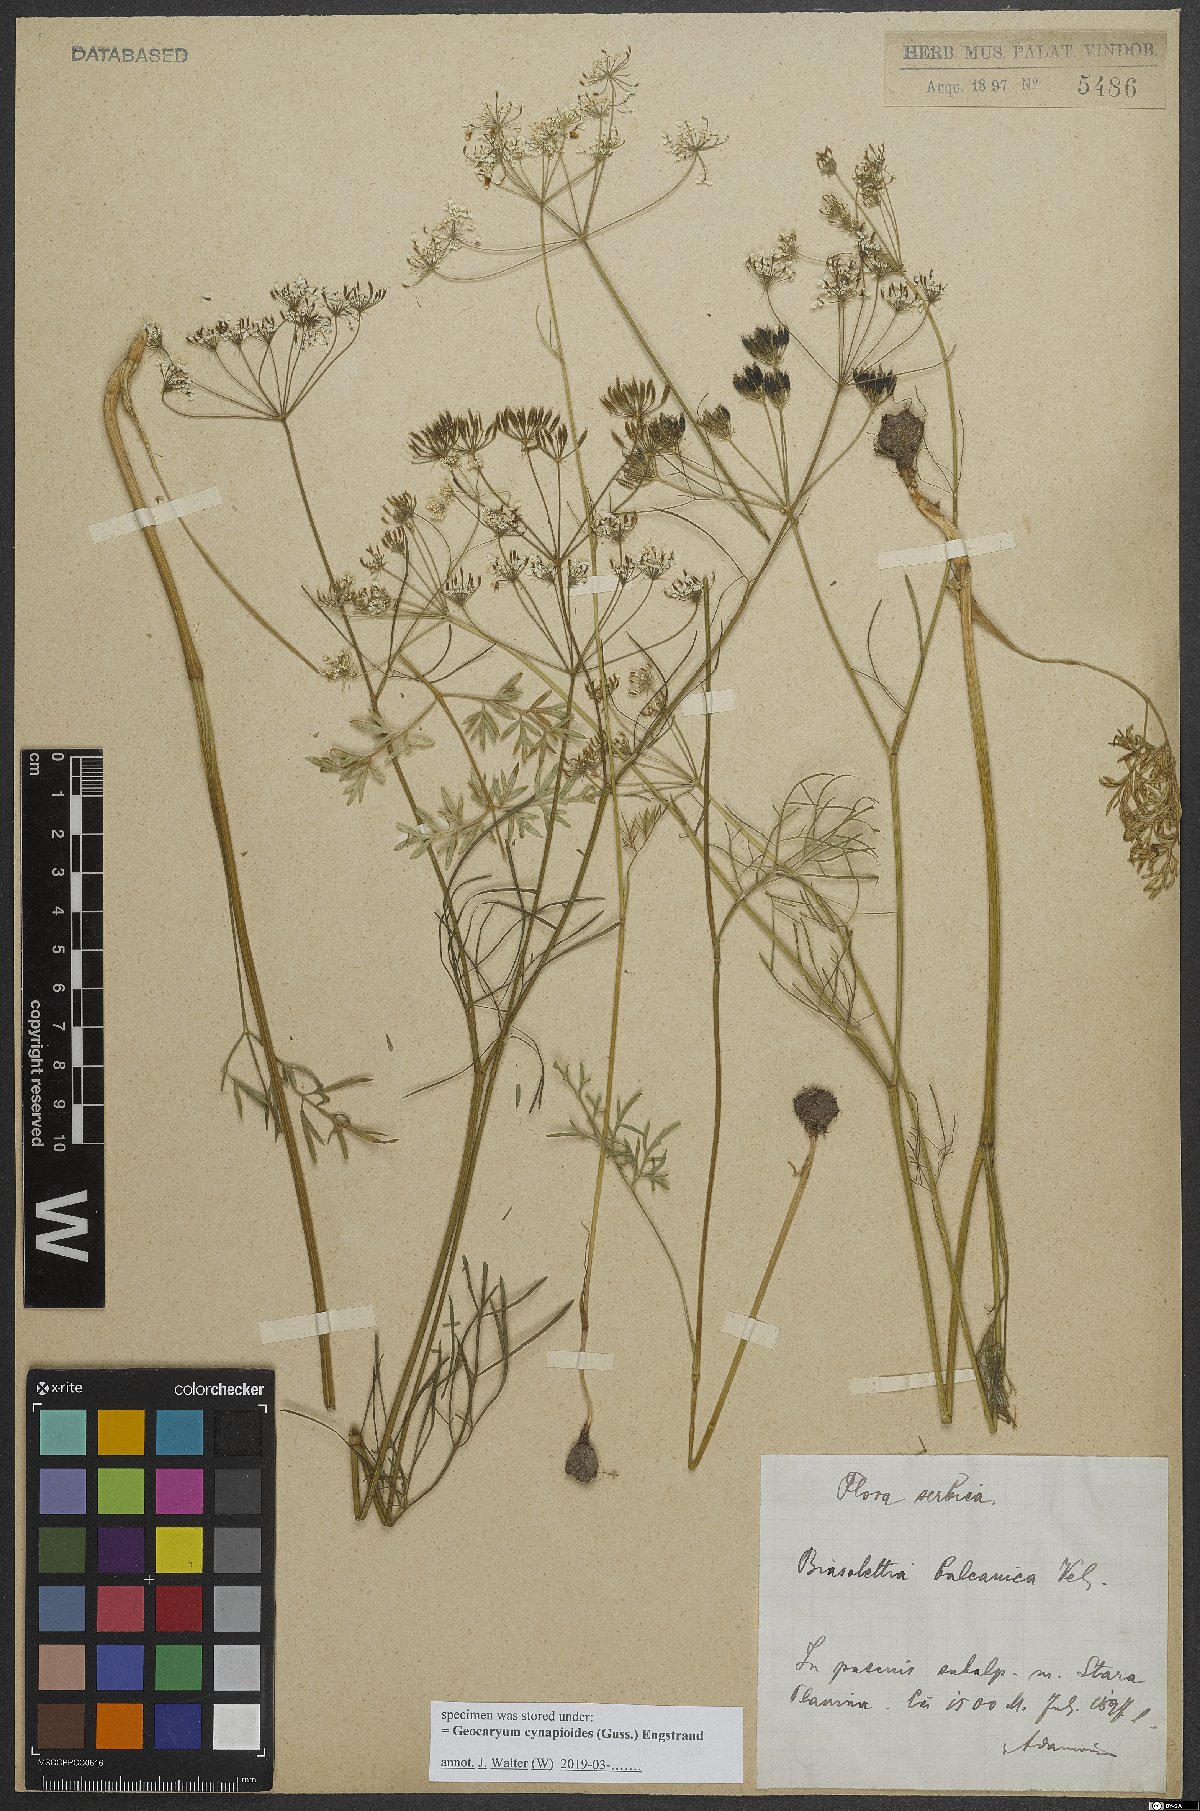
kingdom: Plantae
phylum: Tracheophyta
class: Magnoliopsida
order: Apiales
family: Apiaceae
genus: Geocaryum
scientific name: Geocaryum cynapioides
